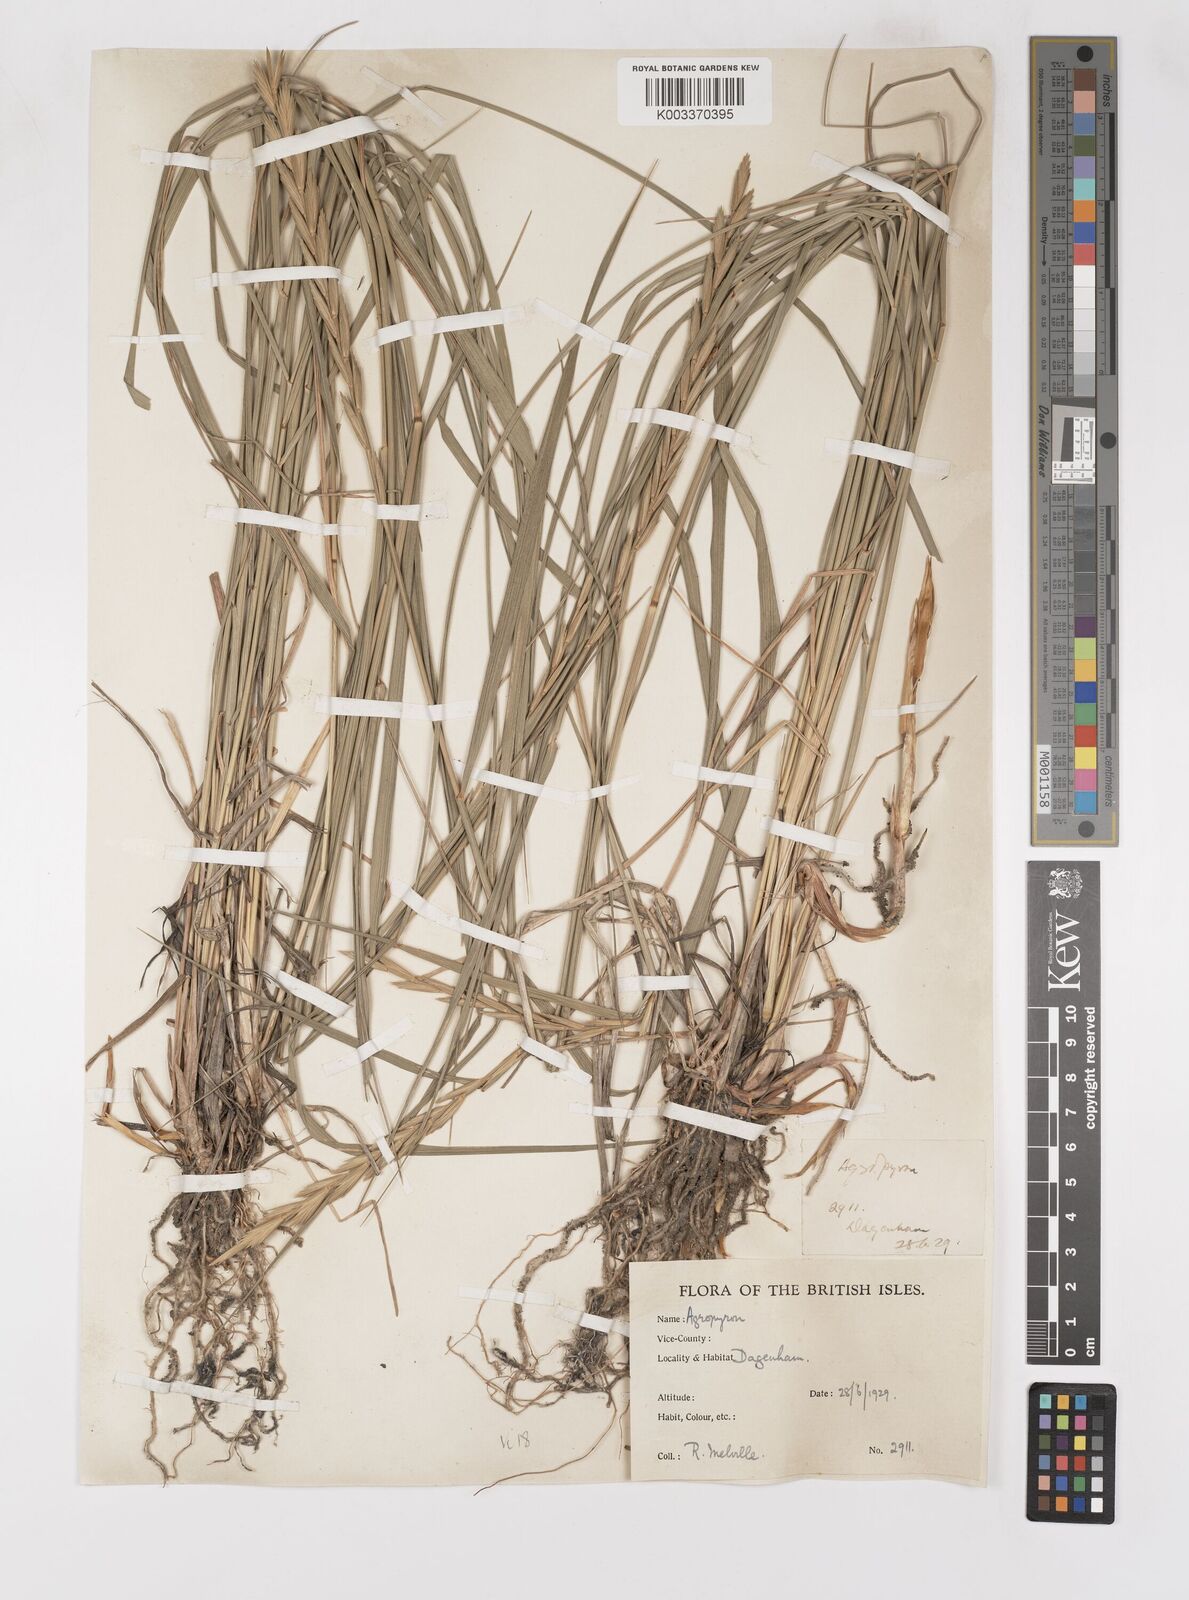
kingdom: Plantae
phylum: Tracheophyta
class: Liliopsida
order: Poales
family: Poaceae
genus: Elymus
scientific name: Elymus oliveri
